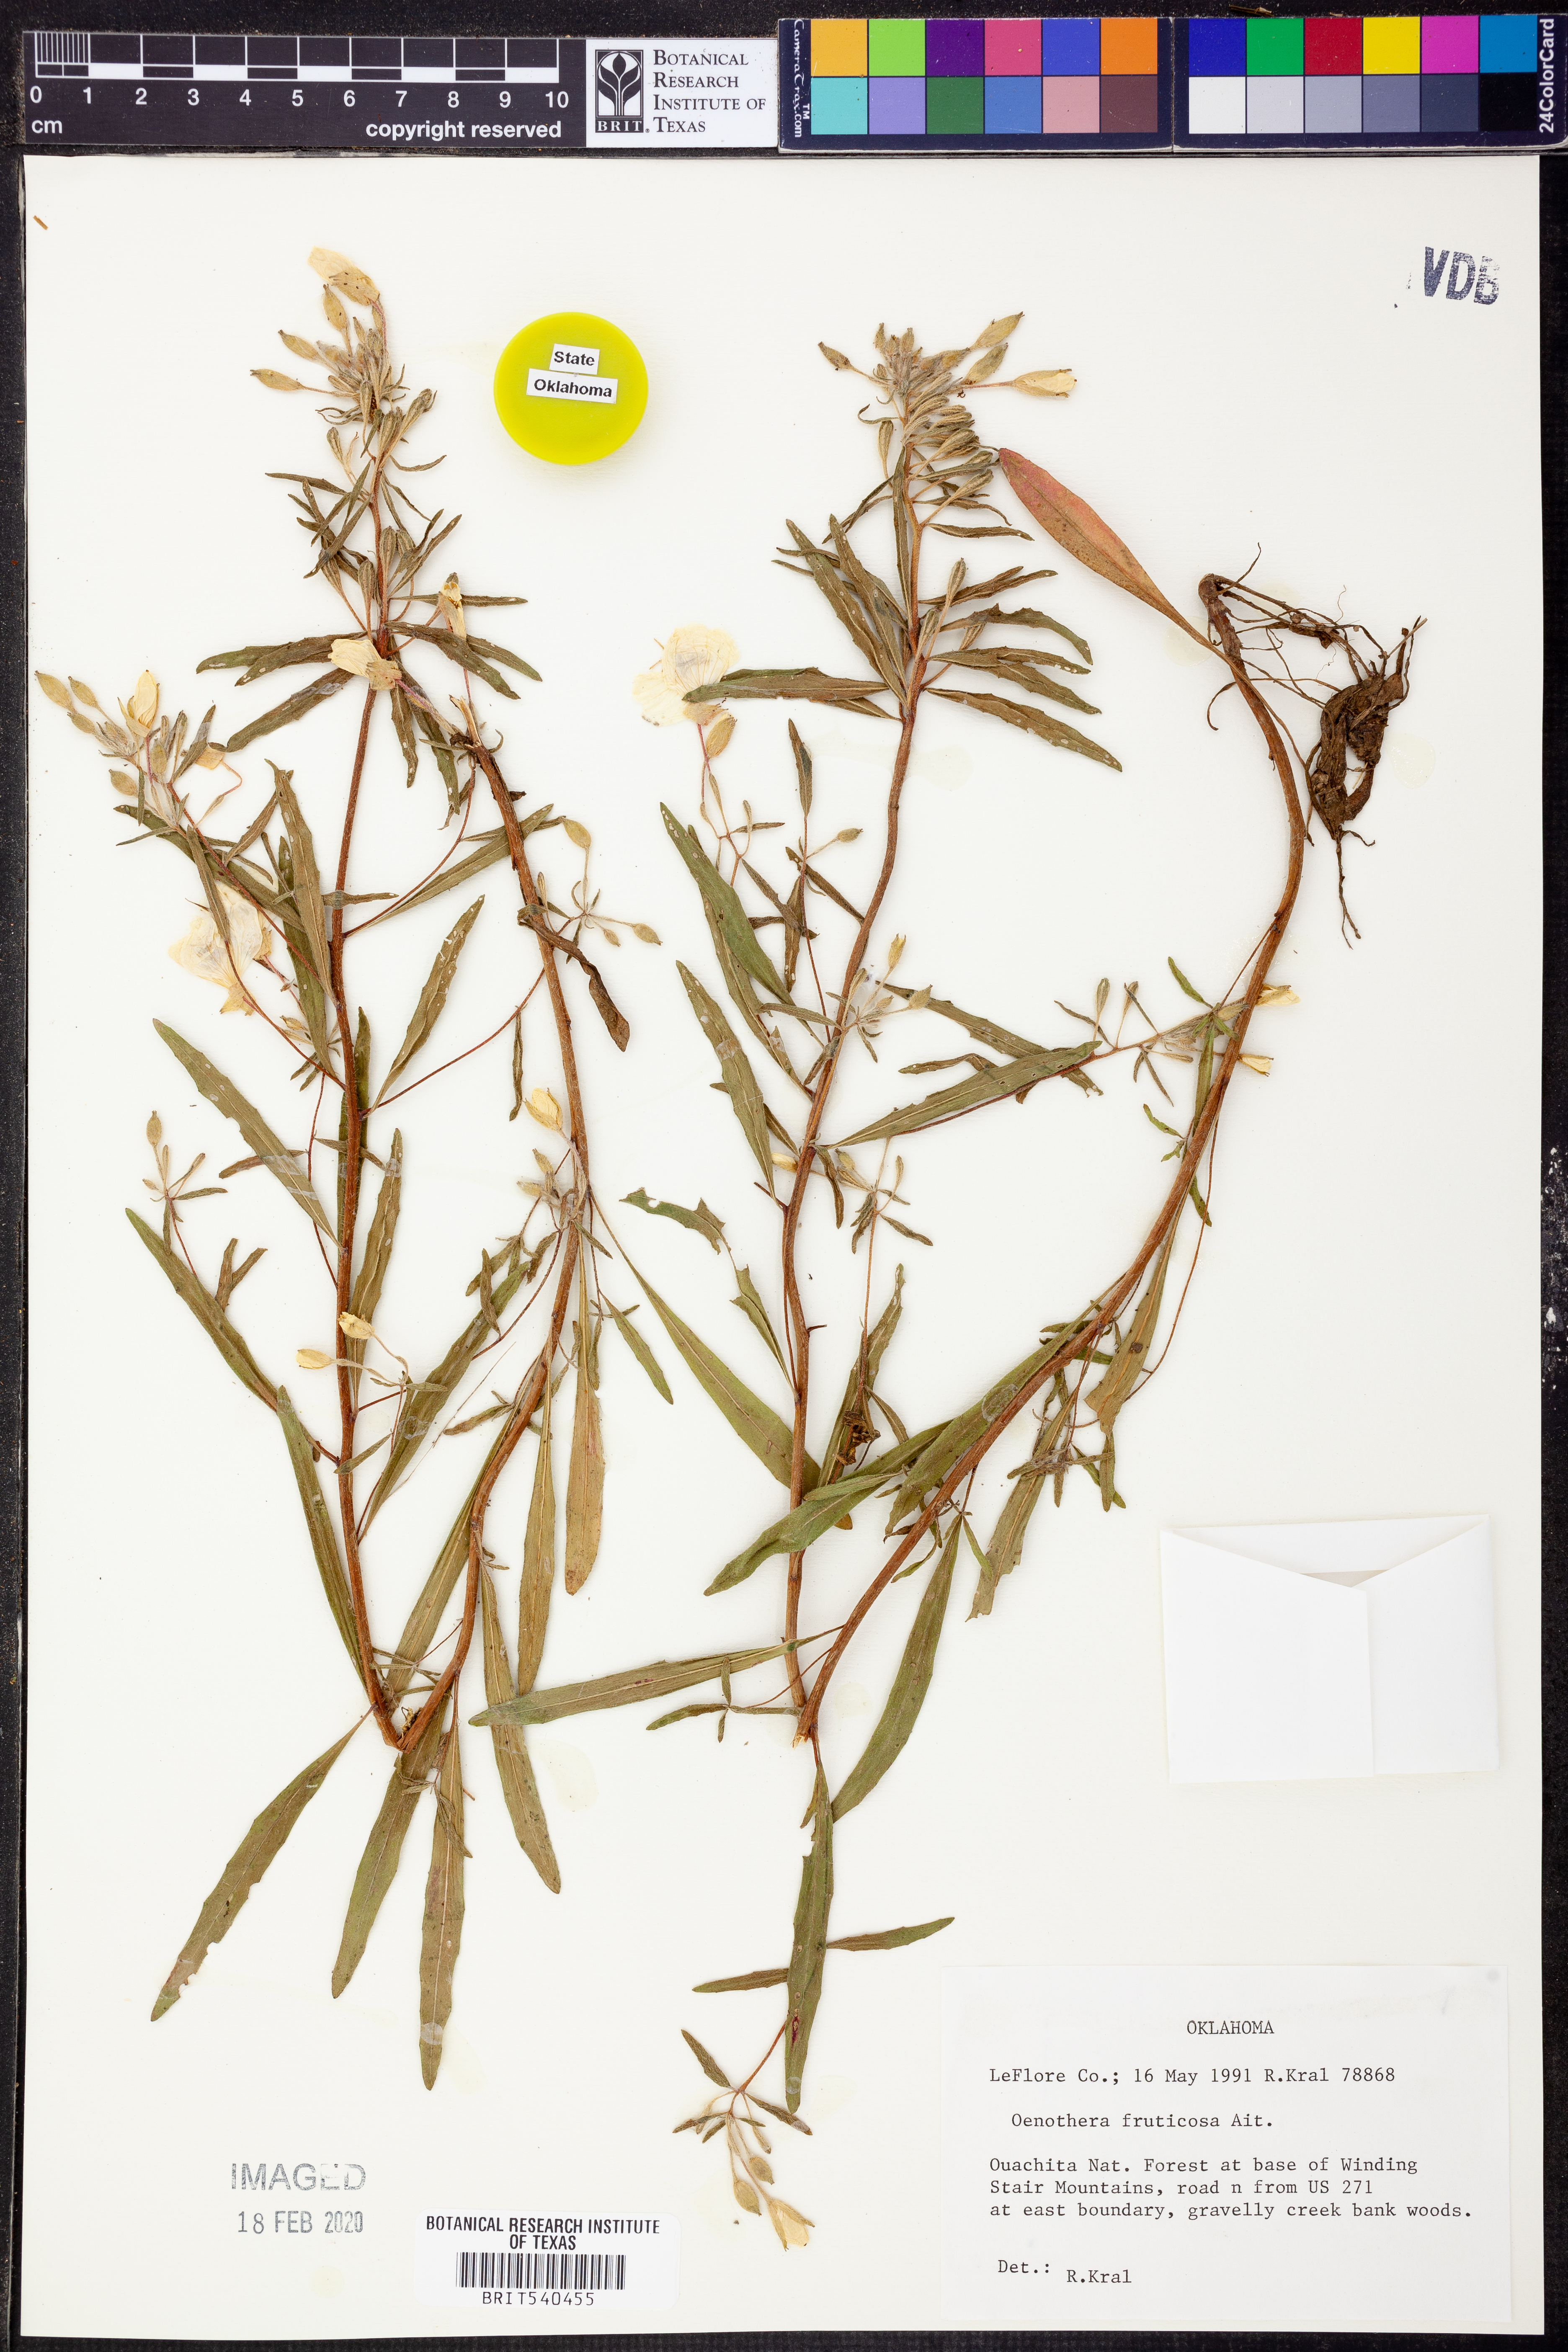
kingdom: Plantae
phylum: Tracheophyta
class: Magnoliopsida
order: Myrtales
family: Onagraceae
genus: Oenothera
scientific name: Oenothera fruticosa
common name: Southern sundrops
